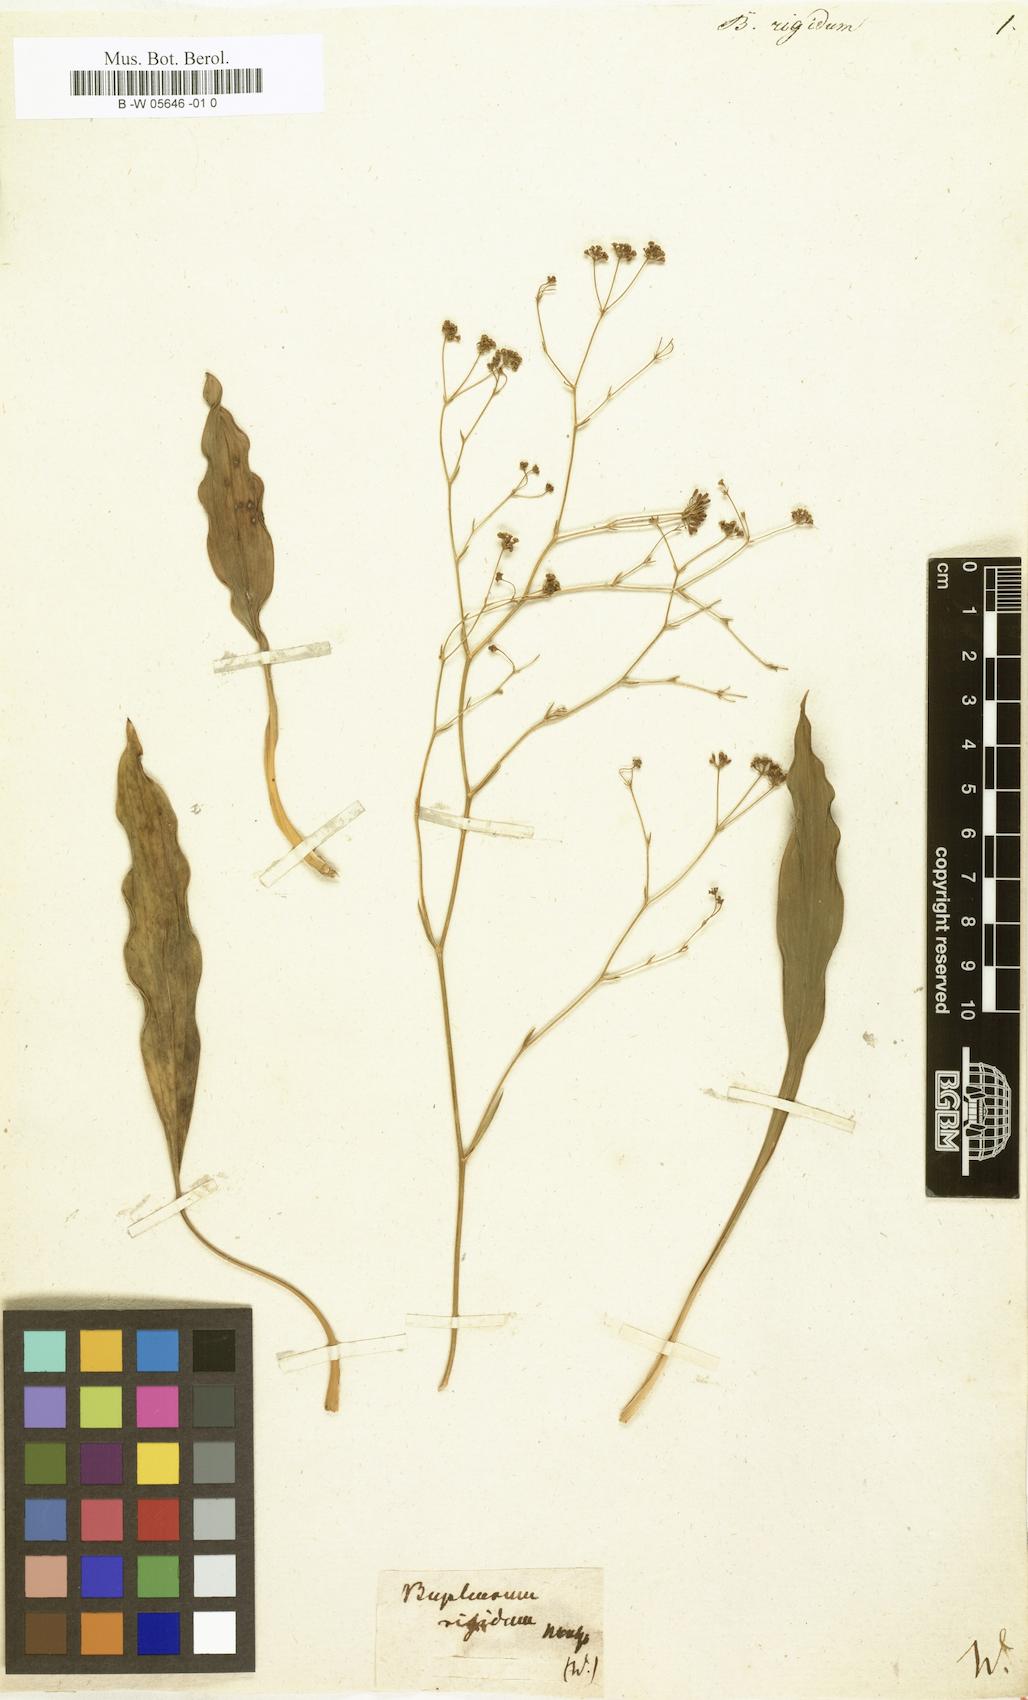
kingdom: Plantae
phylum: Tracheophyta
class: Magnoliopsida
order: Apiales
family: Apiaceae
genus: Bupleurum
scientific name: Bupleurum rigidum
